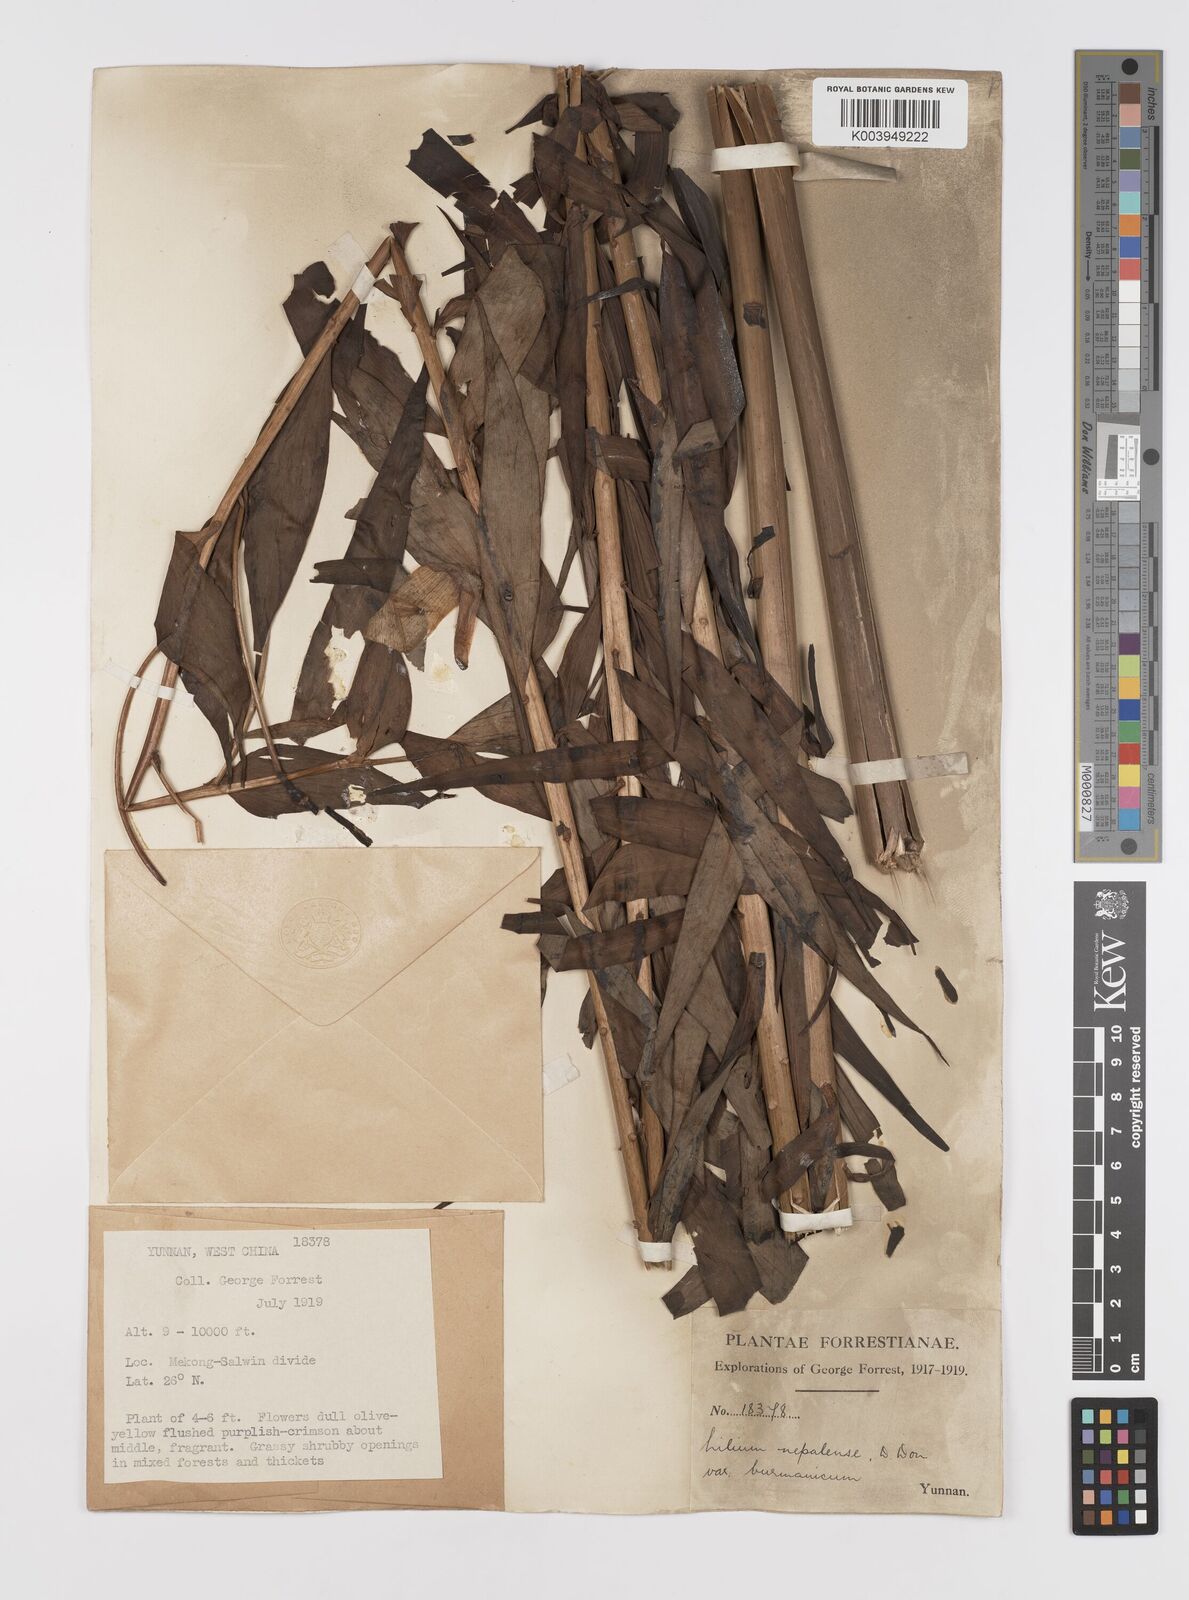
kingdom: Plantae
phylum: Tracheophyta
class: Liliopsida
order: Liliales
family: Liliaceae
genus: Lilium
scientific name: Lilium primulinum
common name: Ochre lily
